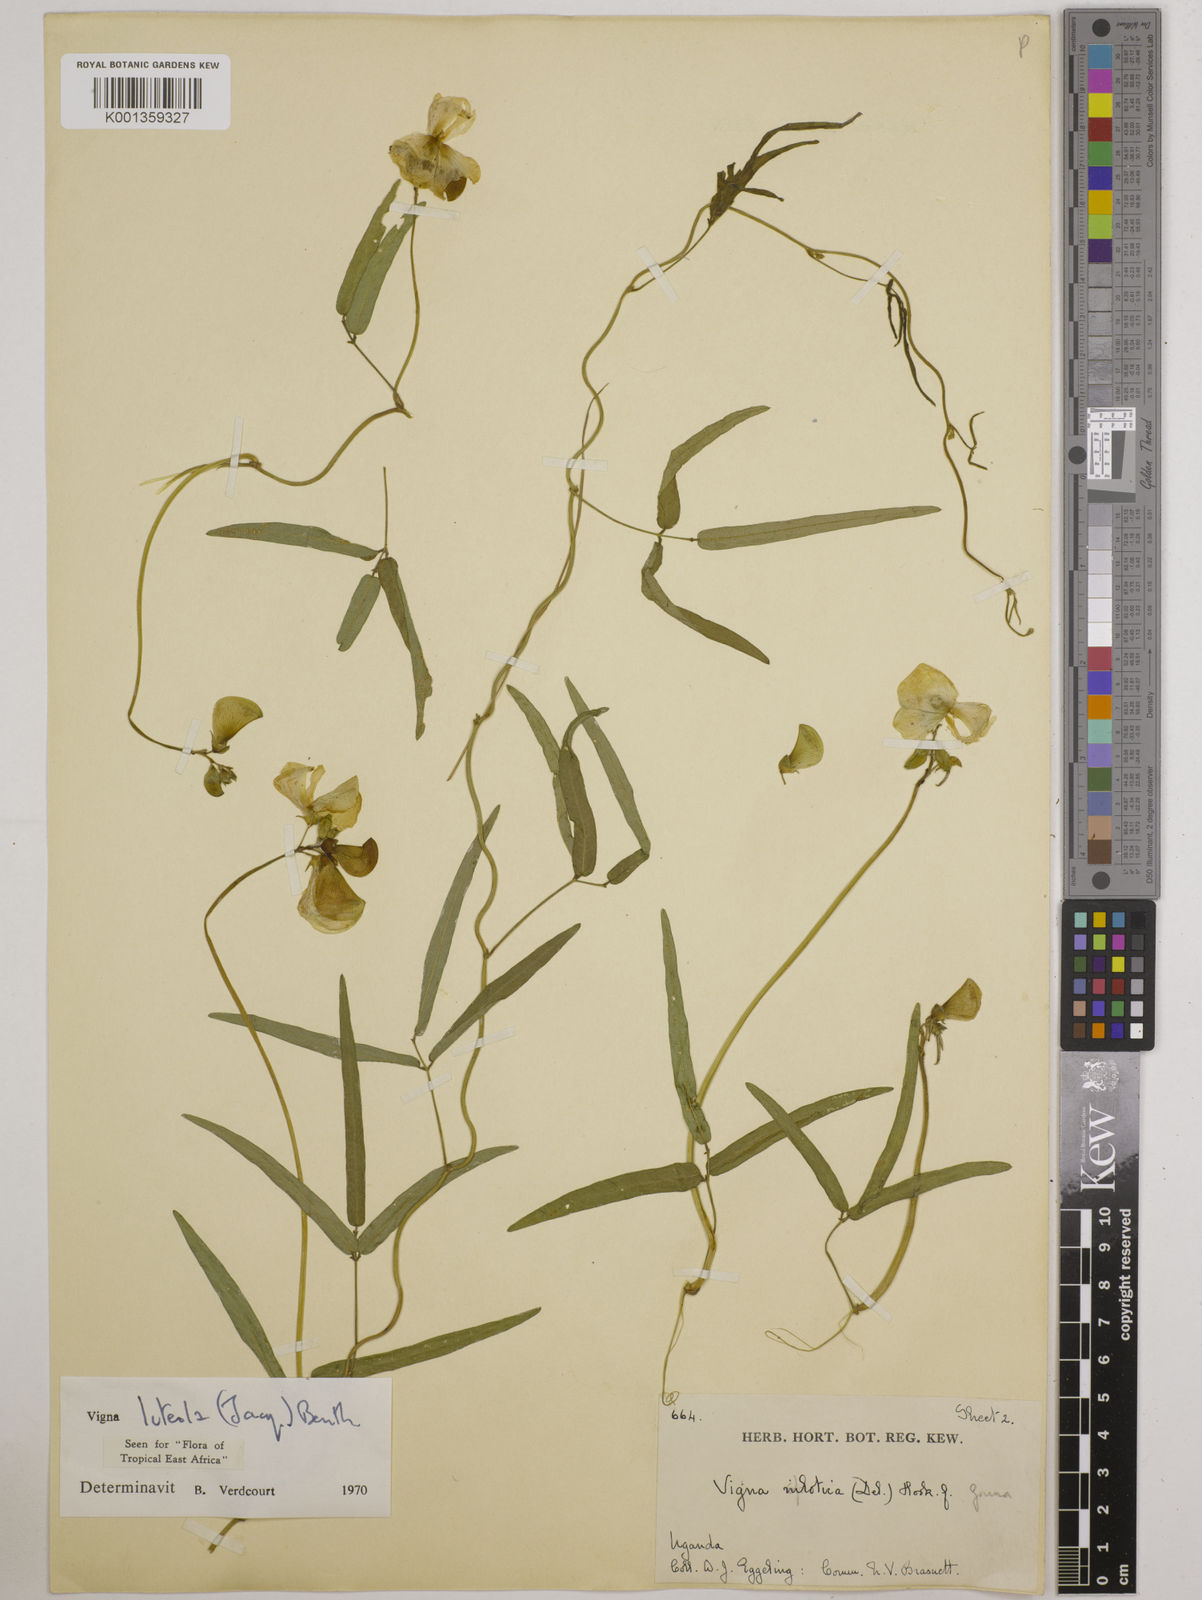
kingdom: Plantae
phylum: Tracheophyta
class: Magnoliopsida
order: Fabales
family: Fabaceae
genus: Vigna
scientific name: Vigna luteola
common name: Hairypod cowpea
